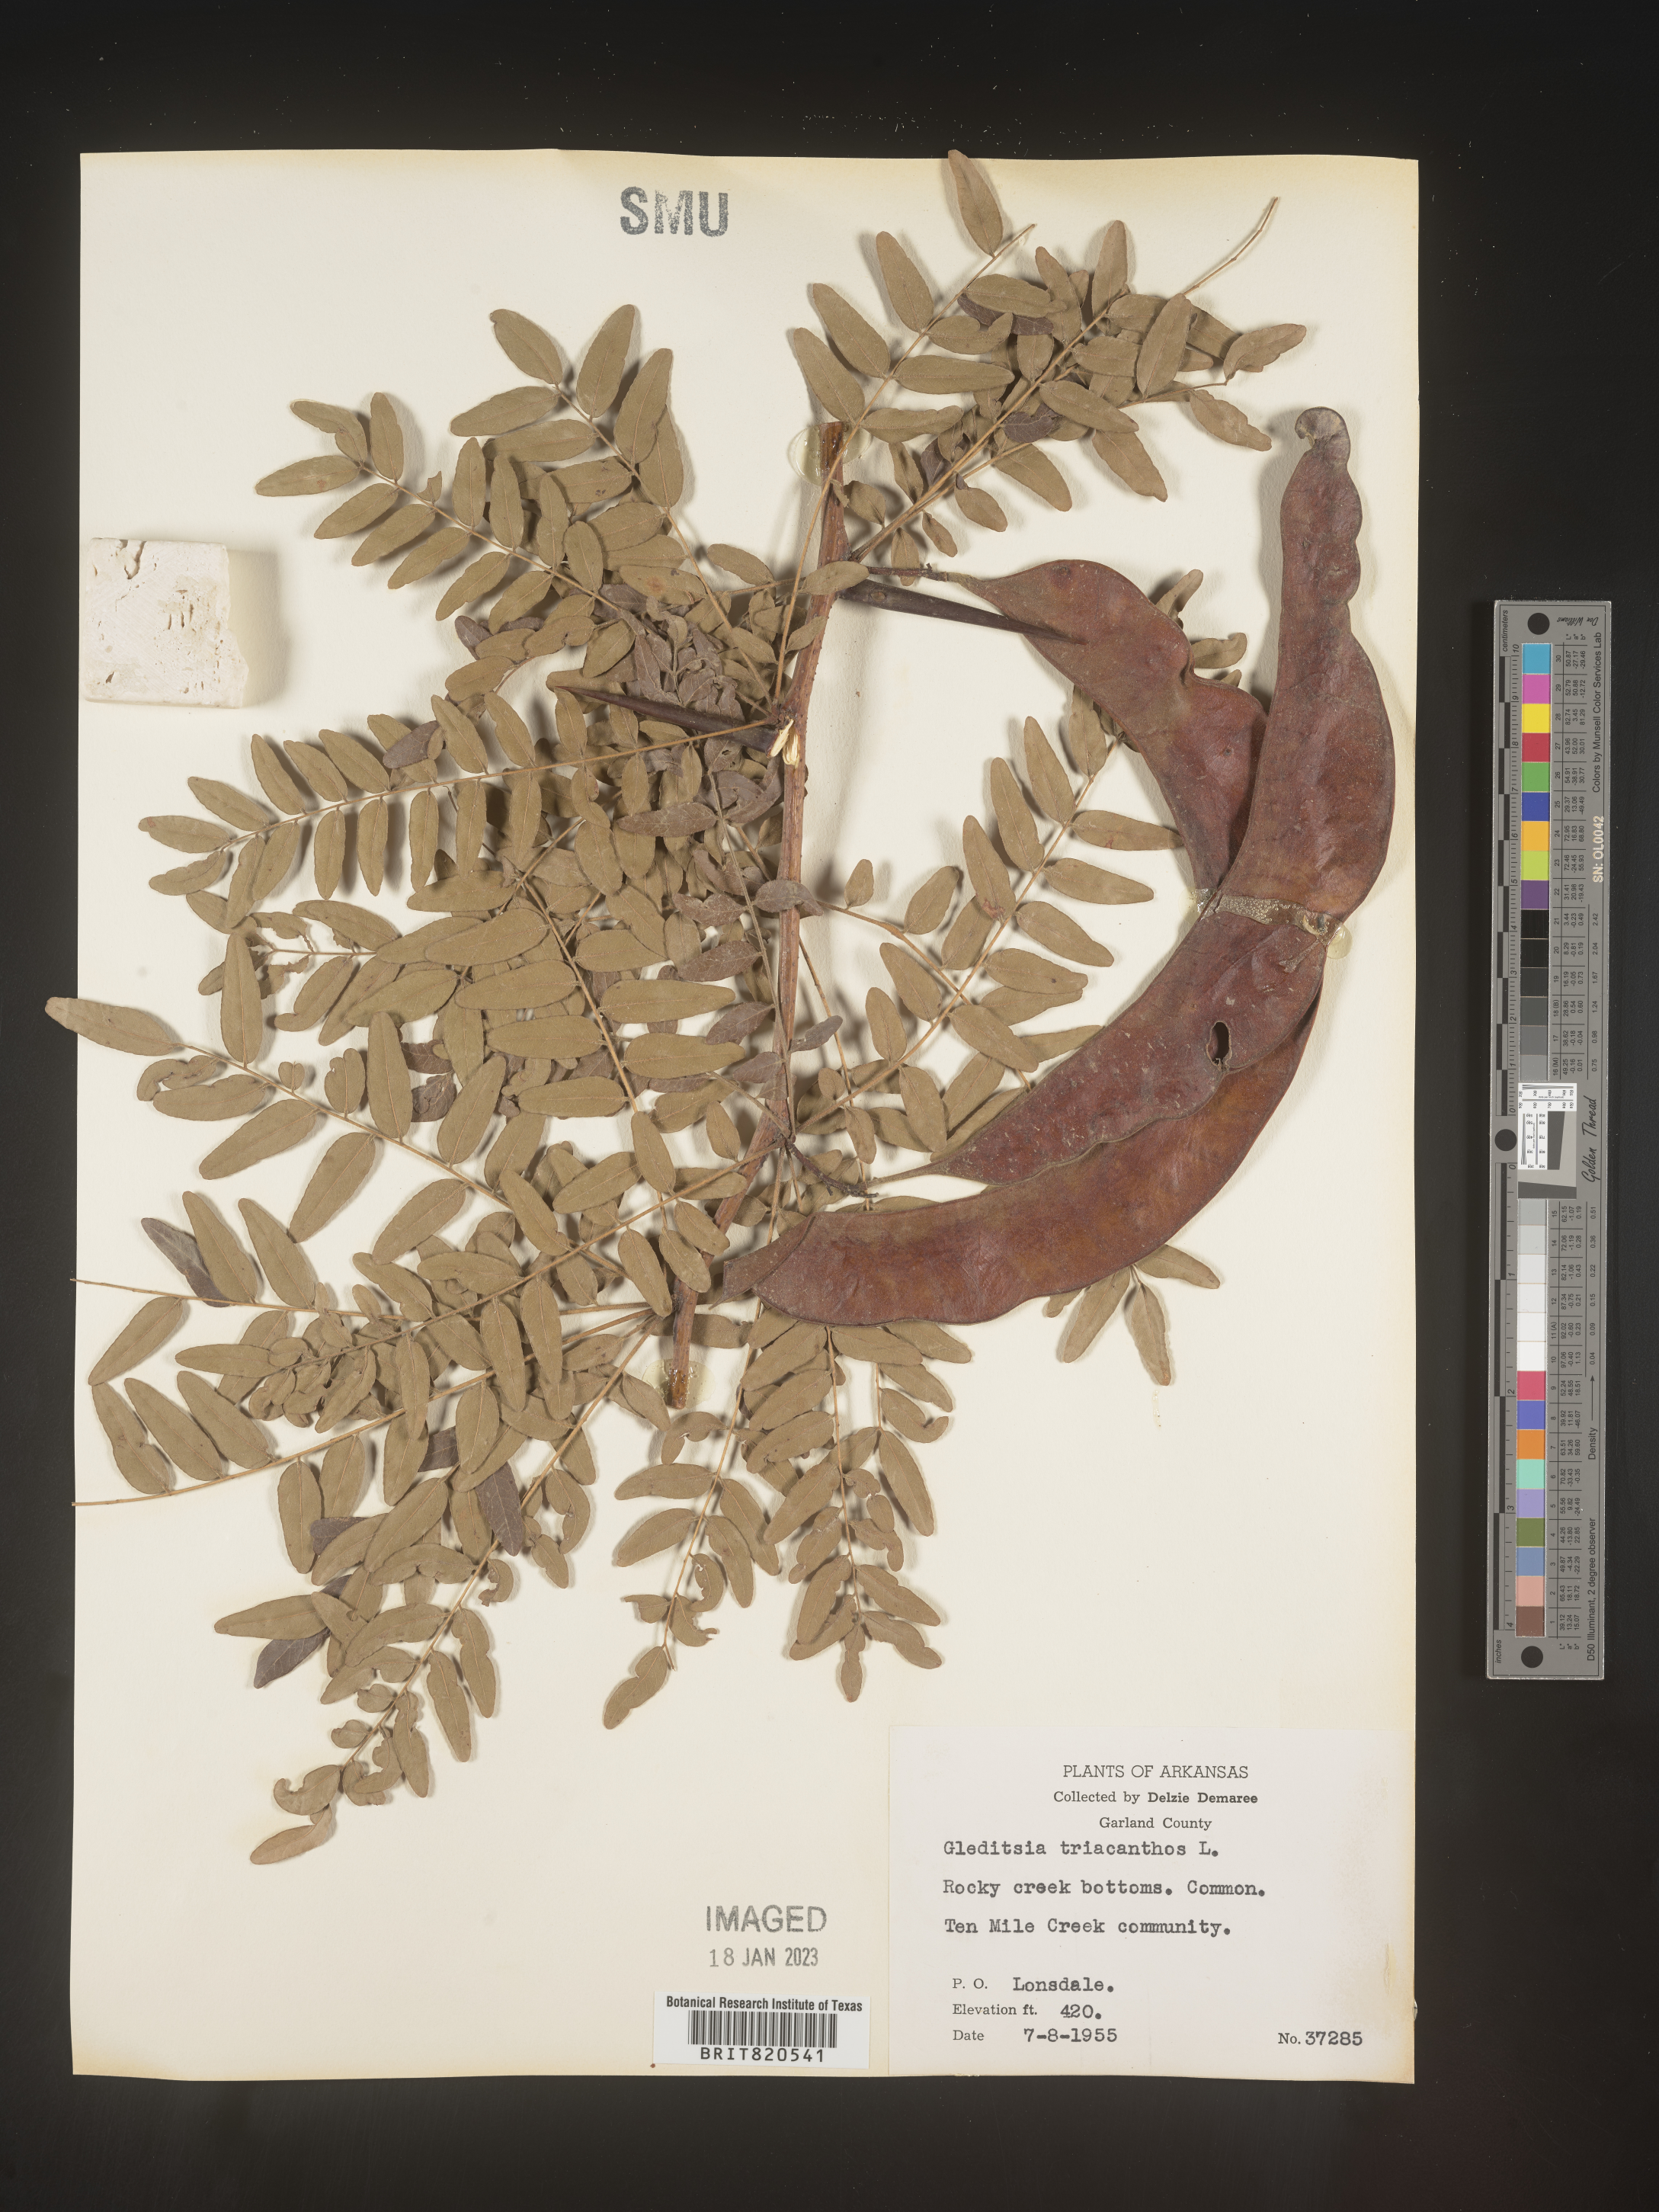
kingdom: Plantae
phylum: Tracheophyta
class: Magnoliopsida
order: Fabales
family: Fabaceae
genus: Gleditsia
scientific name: Gleditsia triacanthos
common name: Common honeylocust
